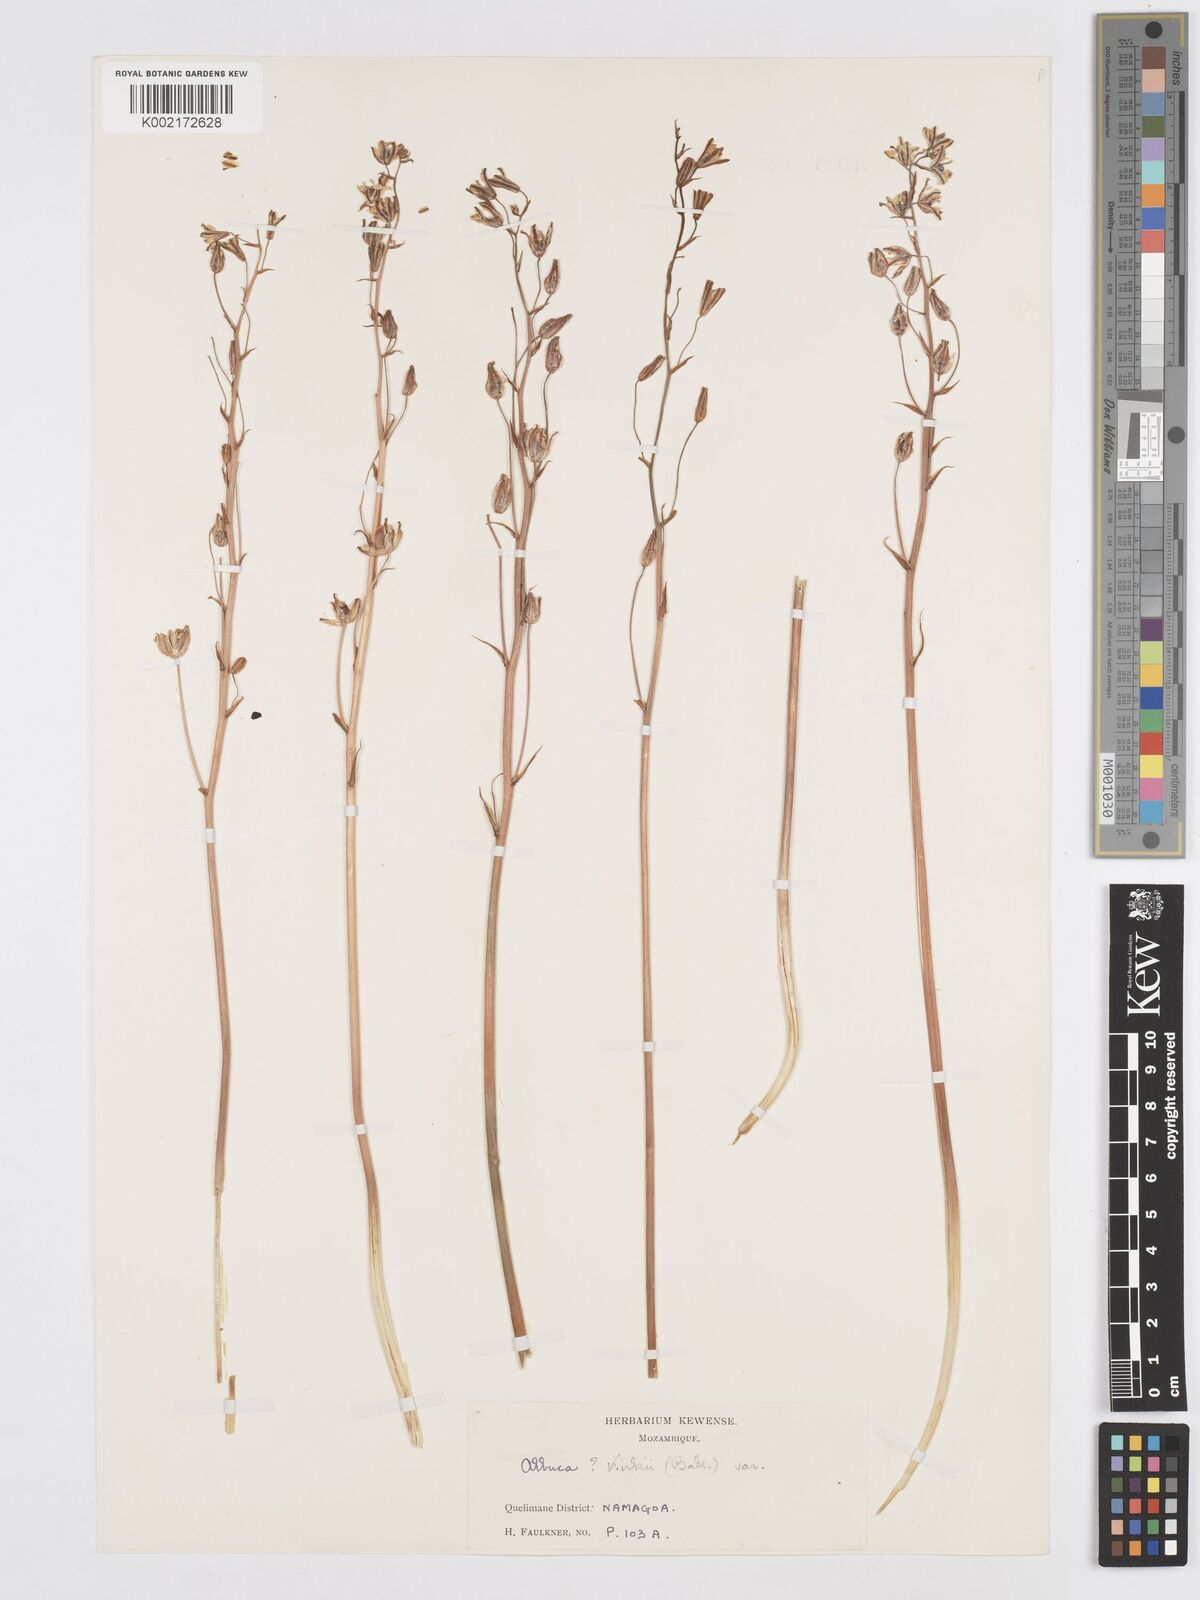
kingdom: Plantae
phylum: Tracheophyta
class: Liliopsida
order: Asparagales
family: Asparagaceae
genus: Albuca
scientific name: Albuca kirkii
